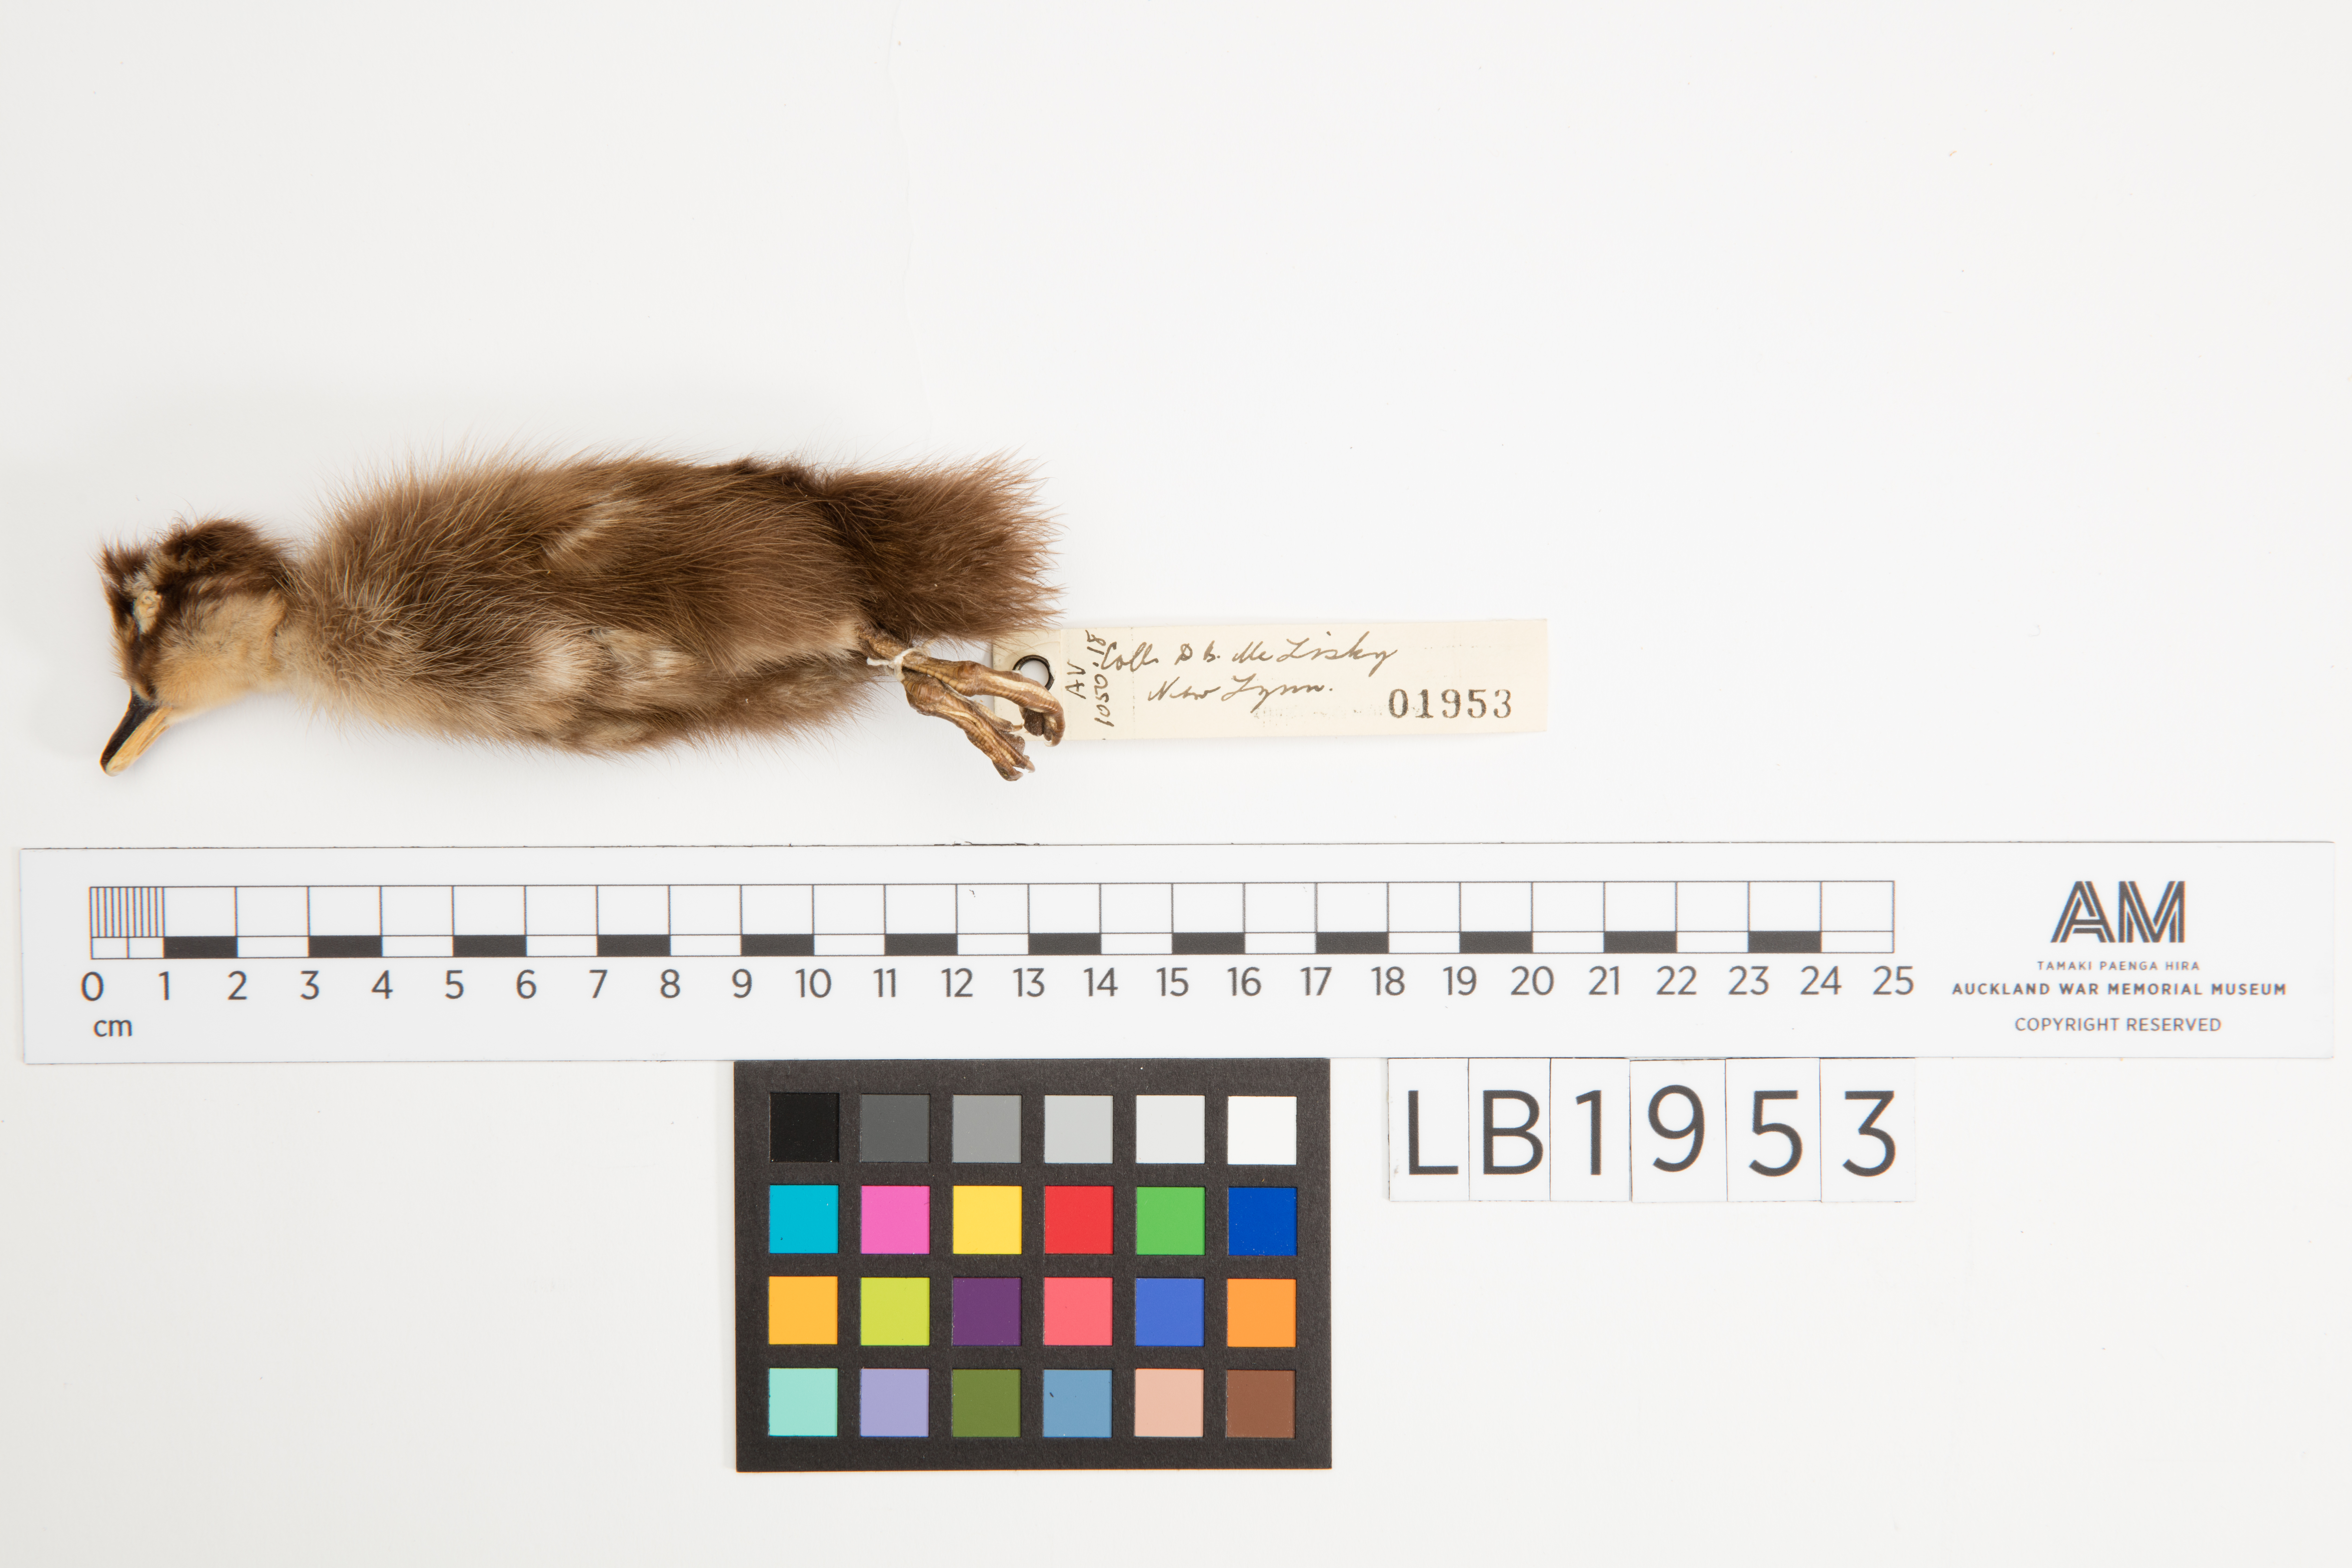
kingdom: Animalia
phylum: Chordata
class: Aves
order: Anseriformes
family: Anatidae
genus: Anas
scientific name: Anas platyrhynchos
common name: Mallard
